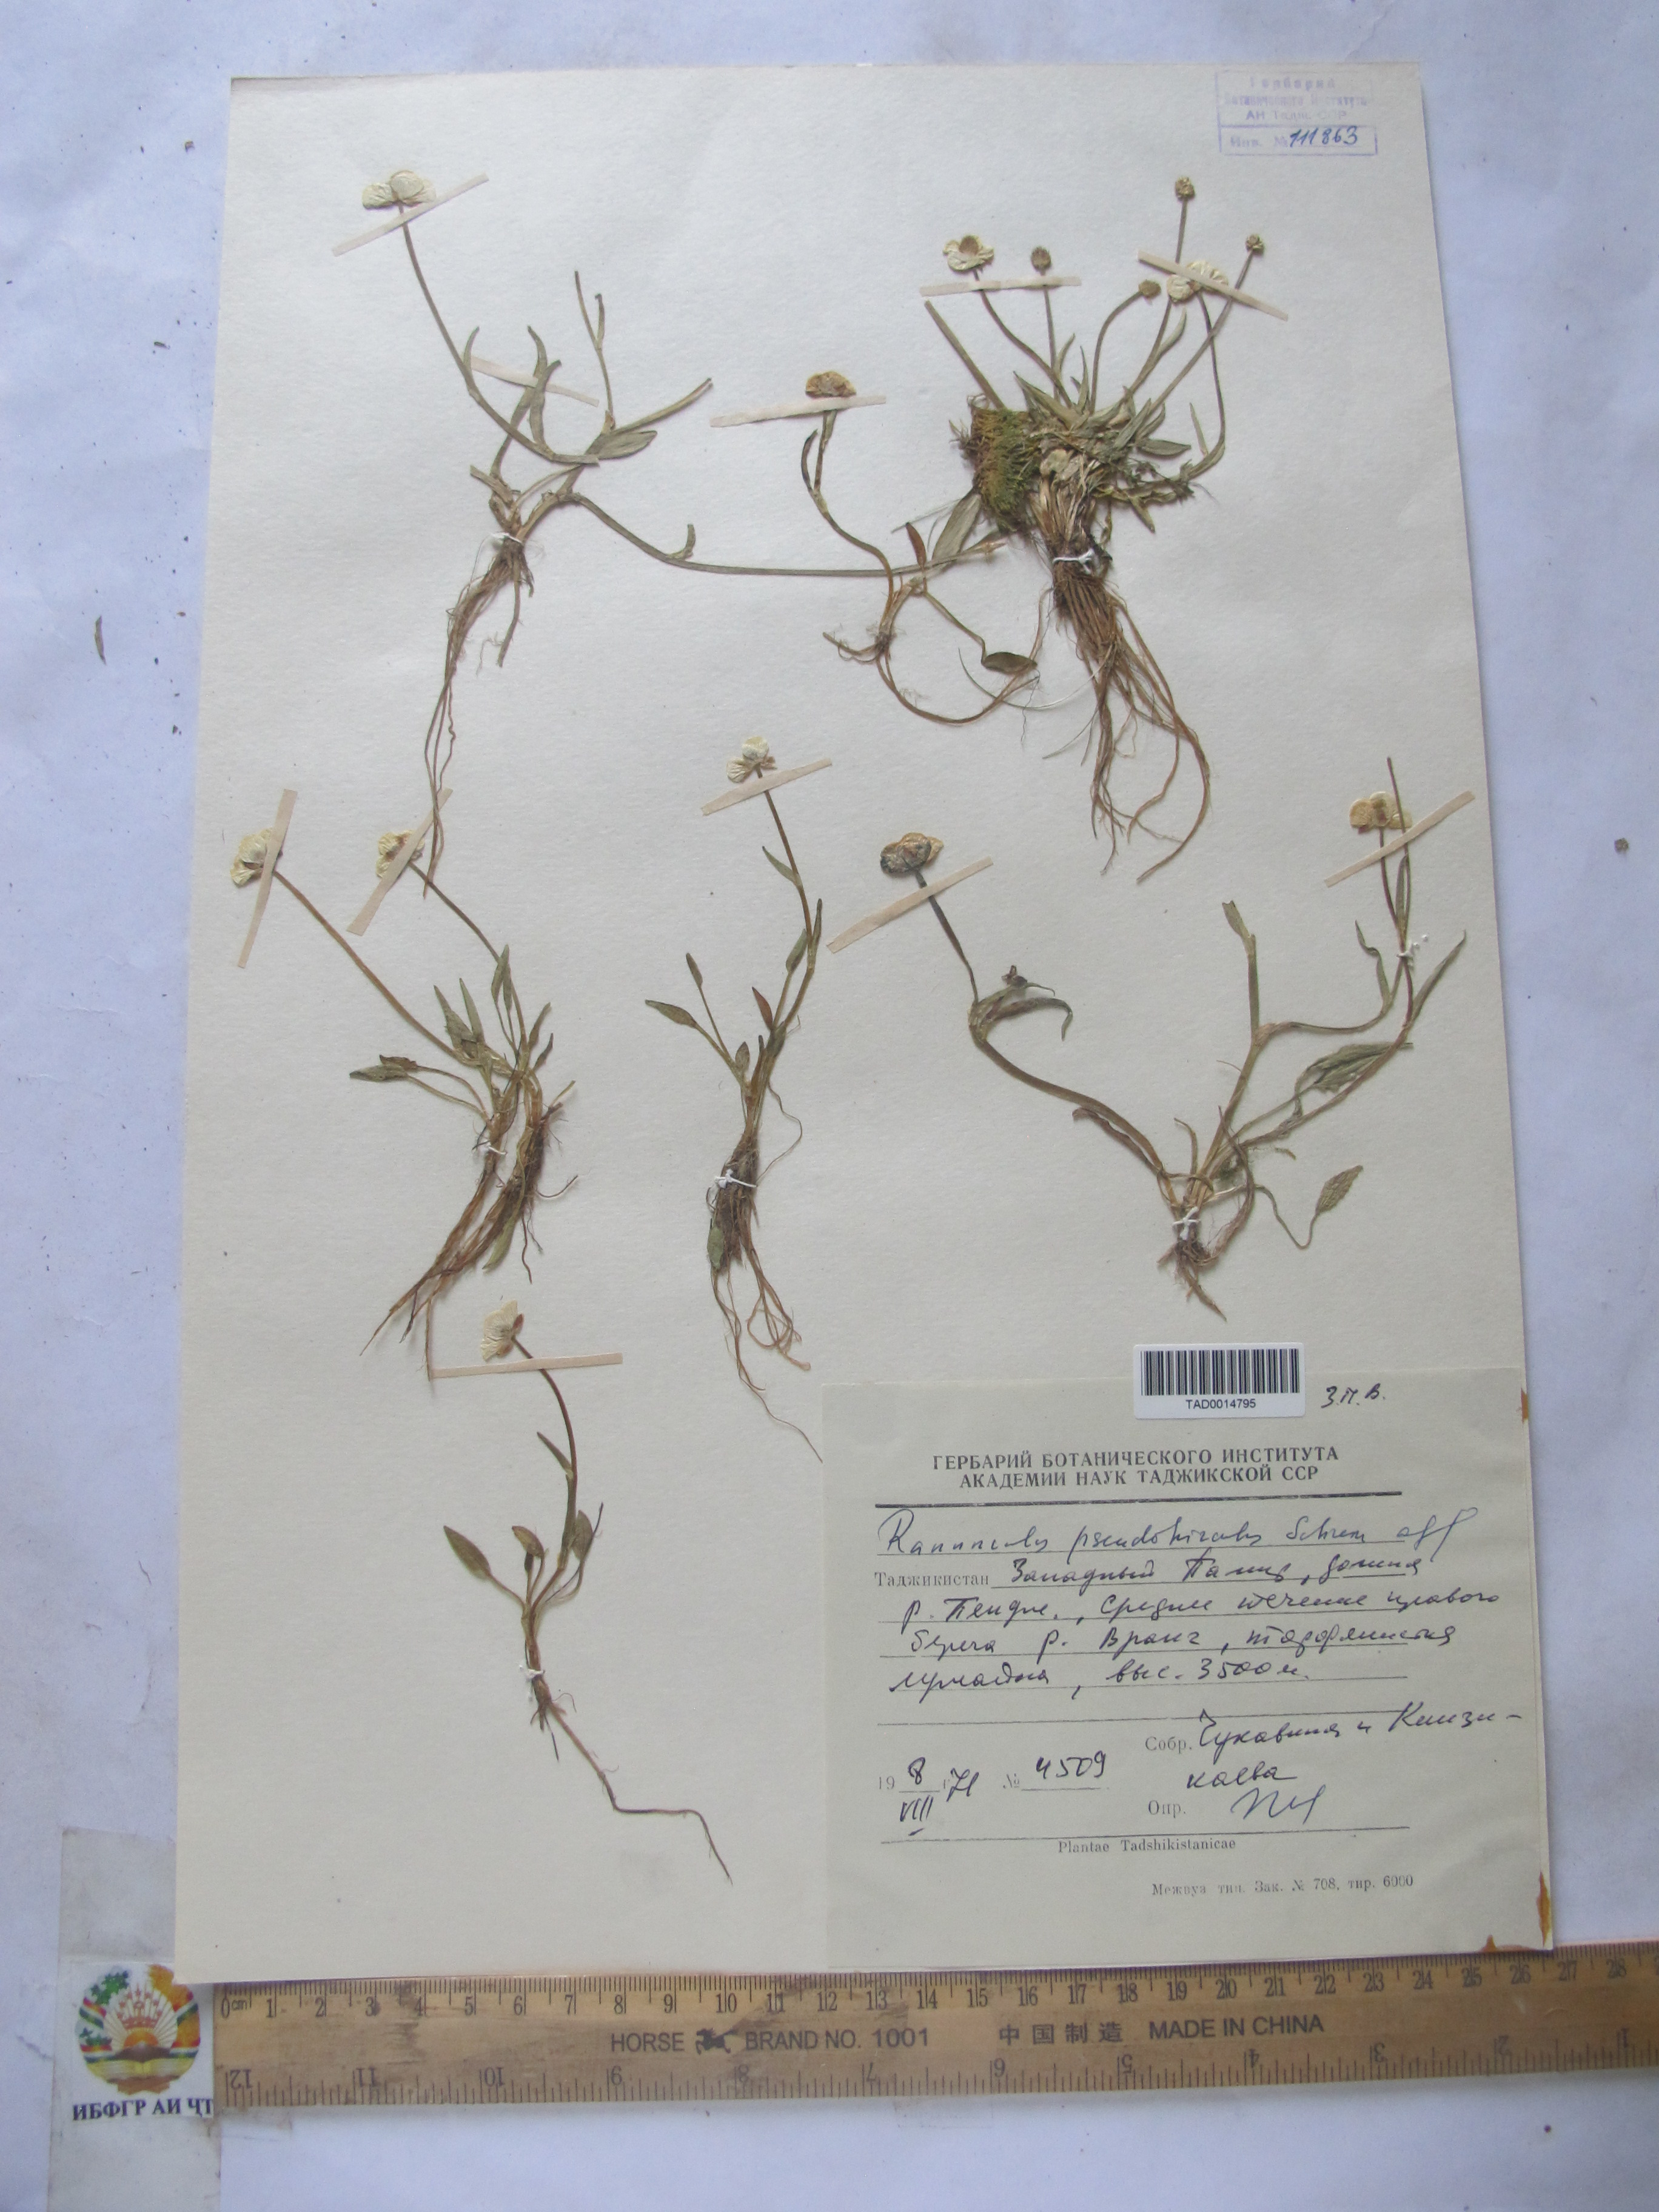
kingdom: Plantae
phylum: Tracheophyta
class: Magnoliopsida
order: Ranunculales
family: Ranunculaceae
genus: Ranunculus
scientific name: Ranunculus pseudohirculus
